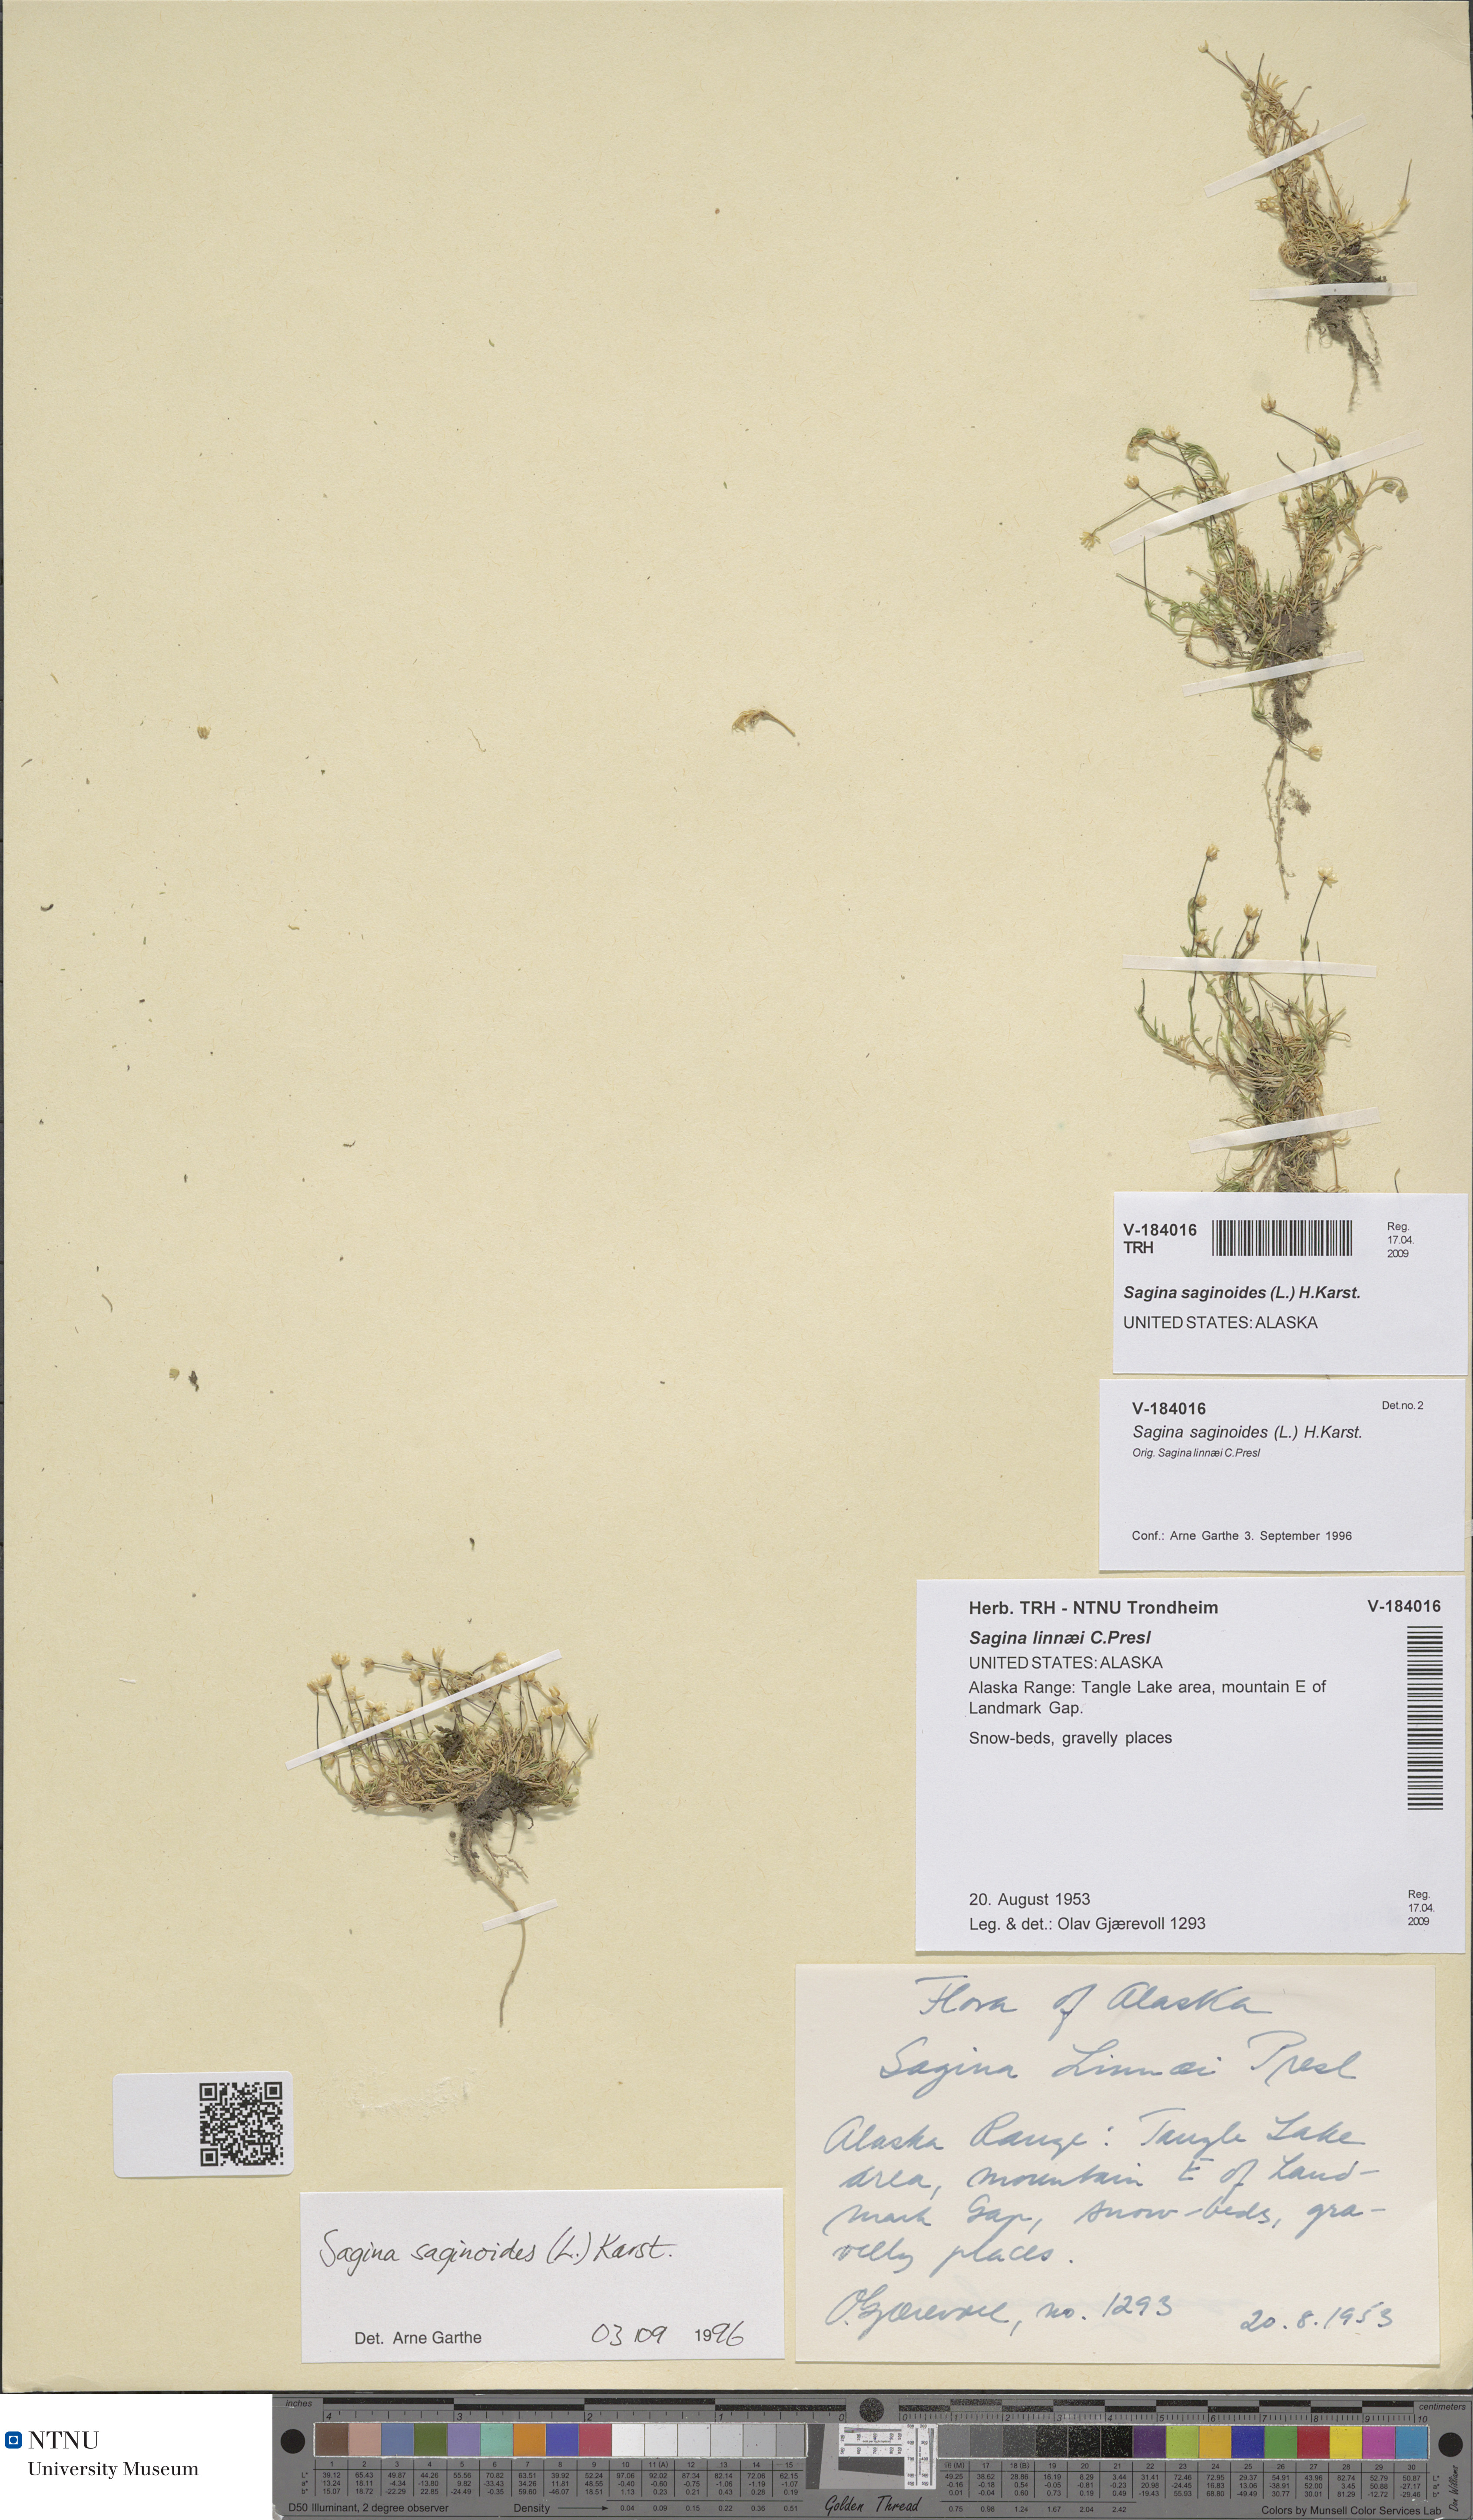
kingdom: Plantae
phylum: Tracheophyta
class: Magnoliopsida
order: Caryophyllales
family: Caryophyllaceae
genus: Sagina
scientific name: Sagina saginoides
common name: Alpine pearlwort
